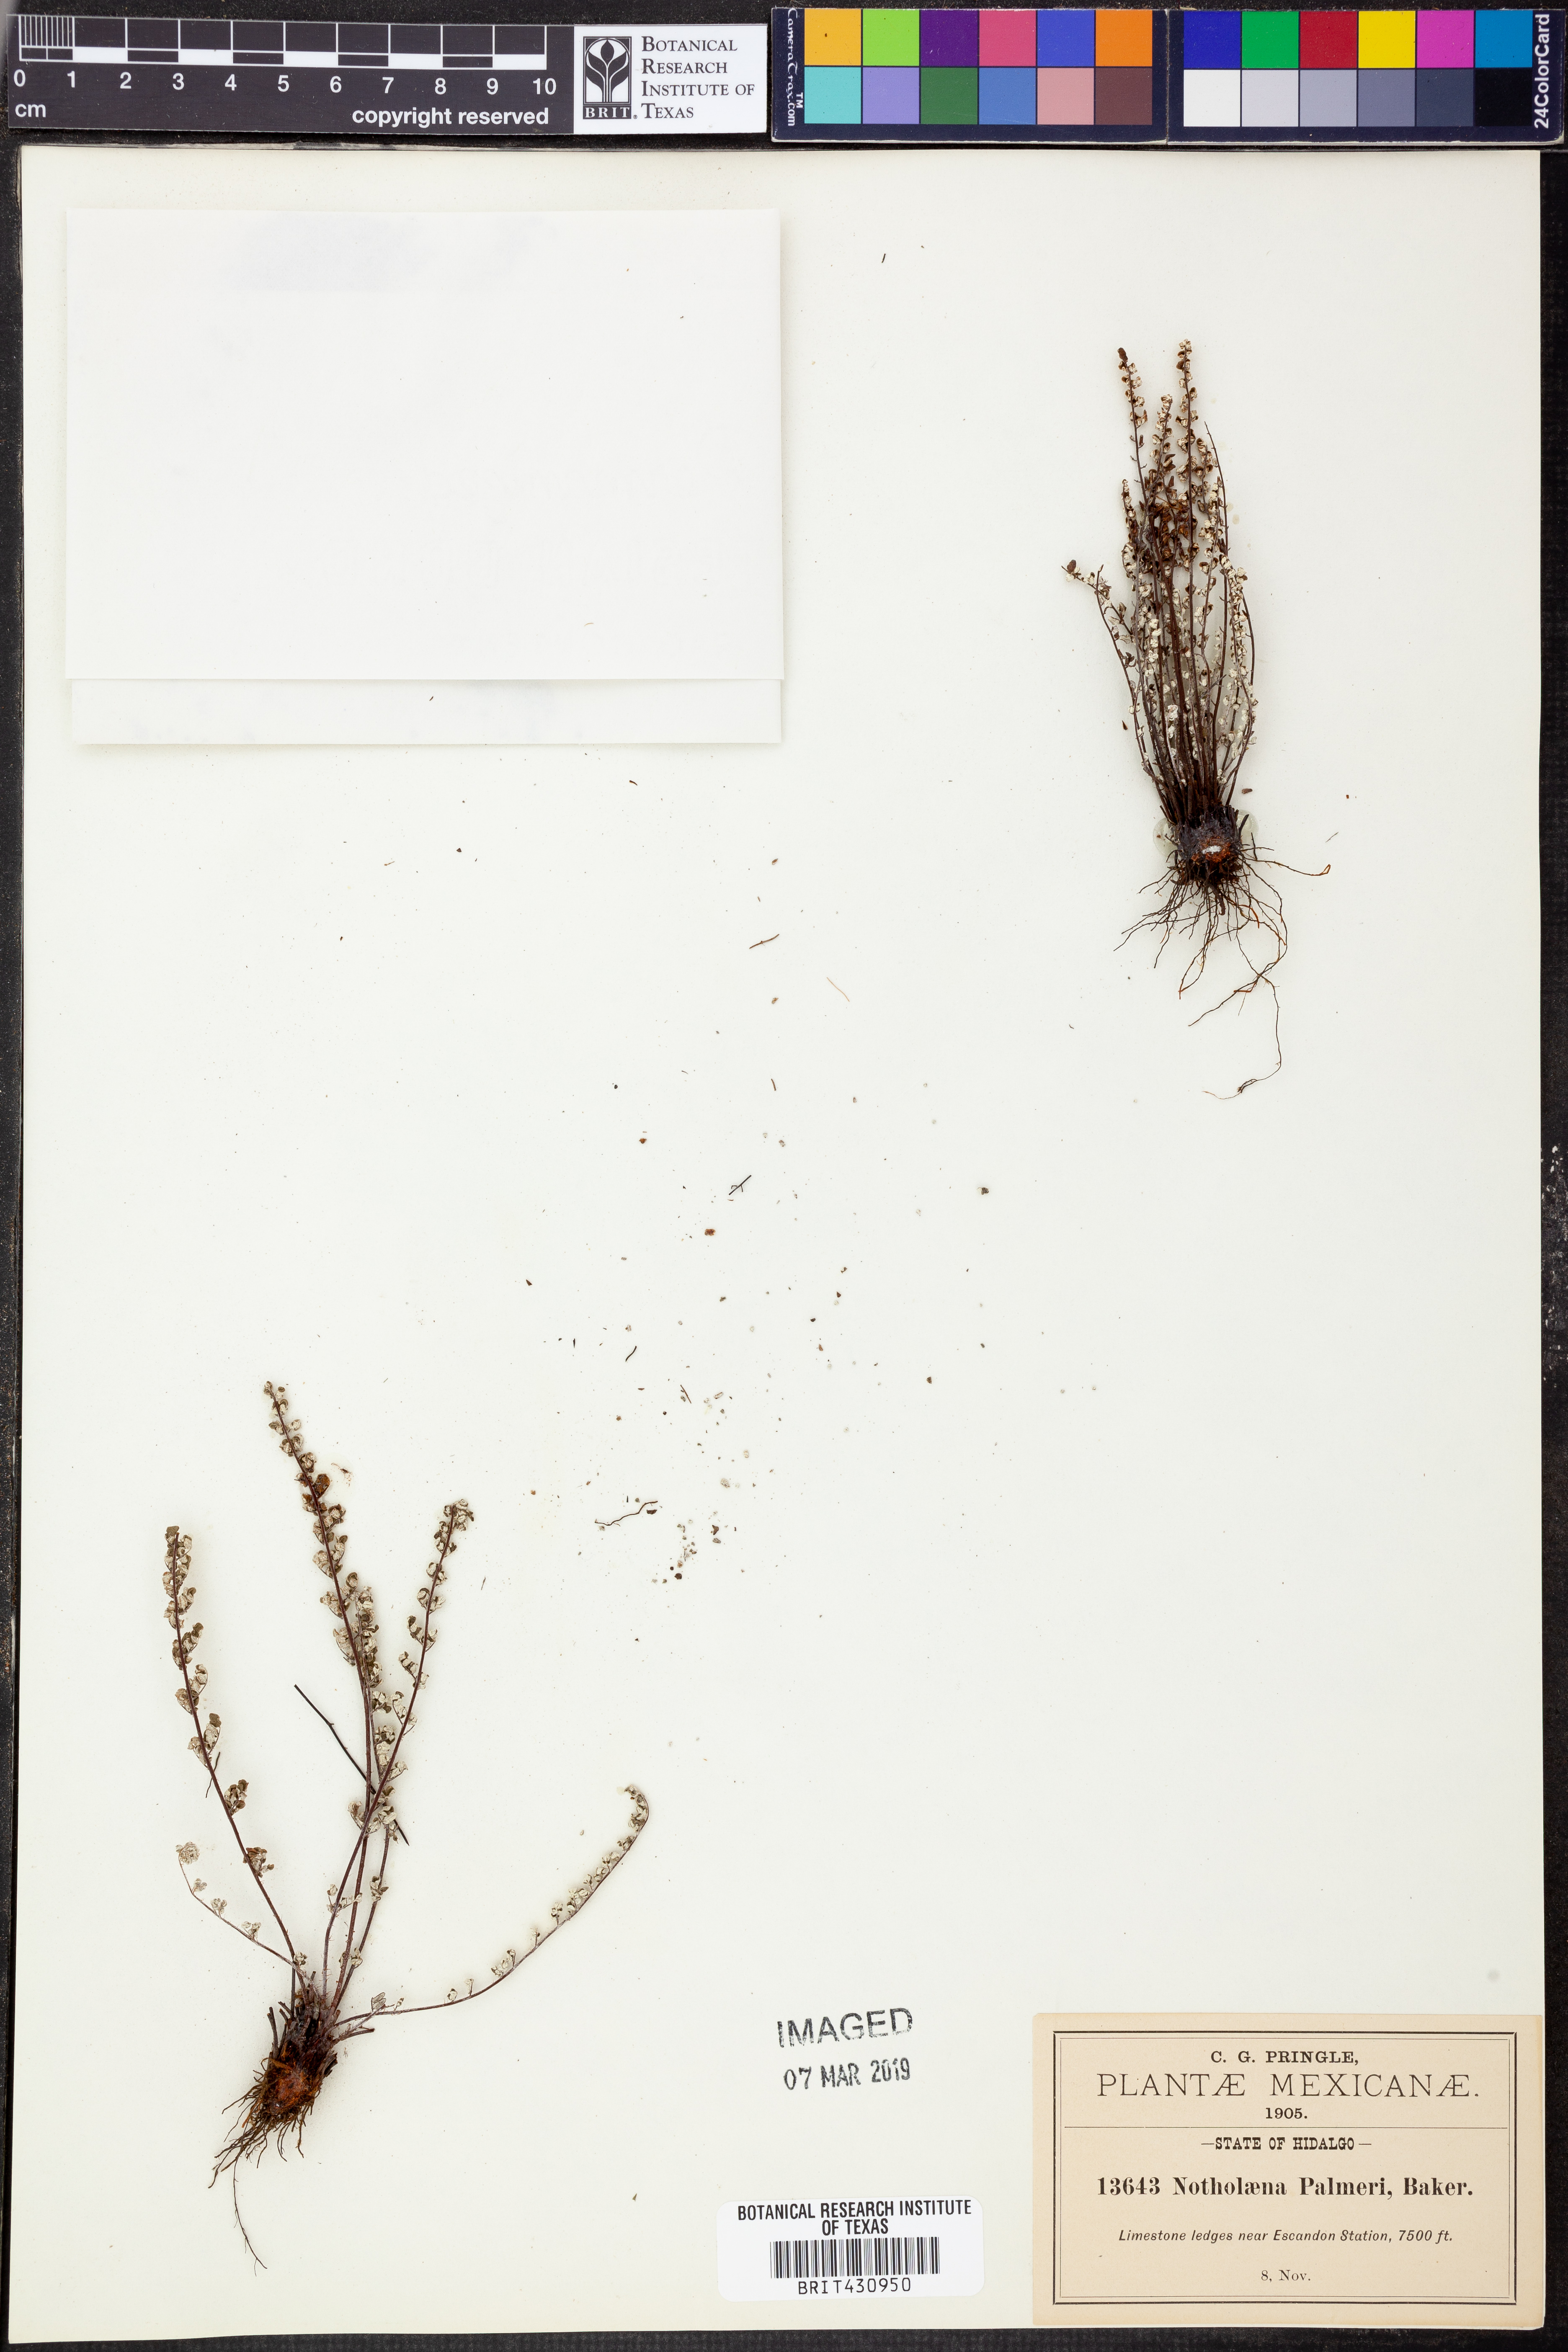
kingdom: Plantae
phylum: Tracheophyta
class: Polypodiopsida
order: Polypodiales
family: Pteridaceae
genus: Argyrochosma
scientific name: Argyrochosma palmeri
